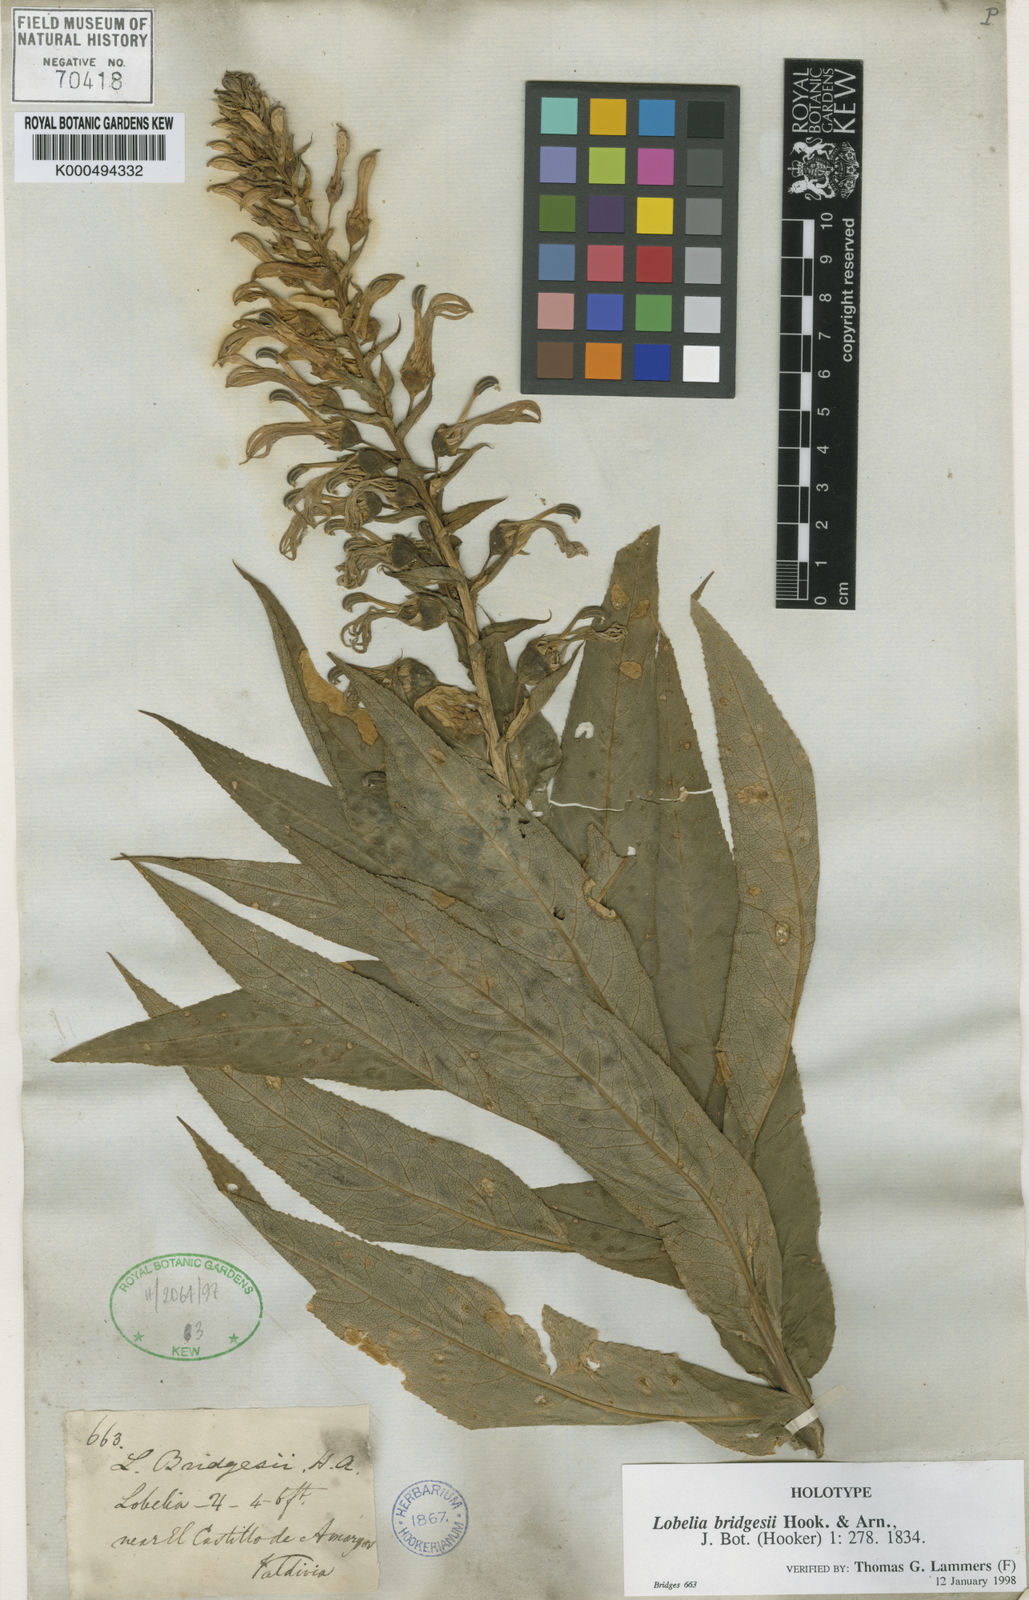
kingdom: Plantae
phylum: Tracheophyta
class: Magnoliopsida
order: Asterales
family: Campanulaceae
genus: Lobelia
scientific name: Lobelia bridgesii
